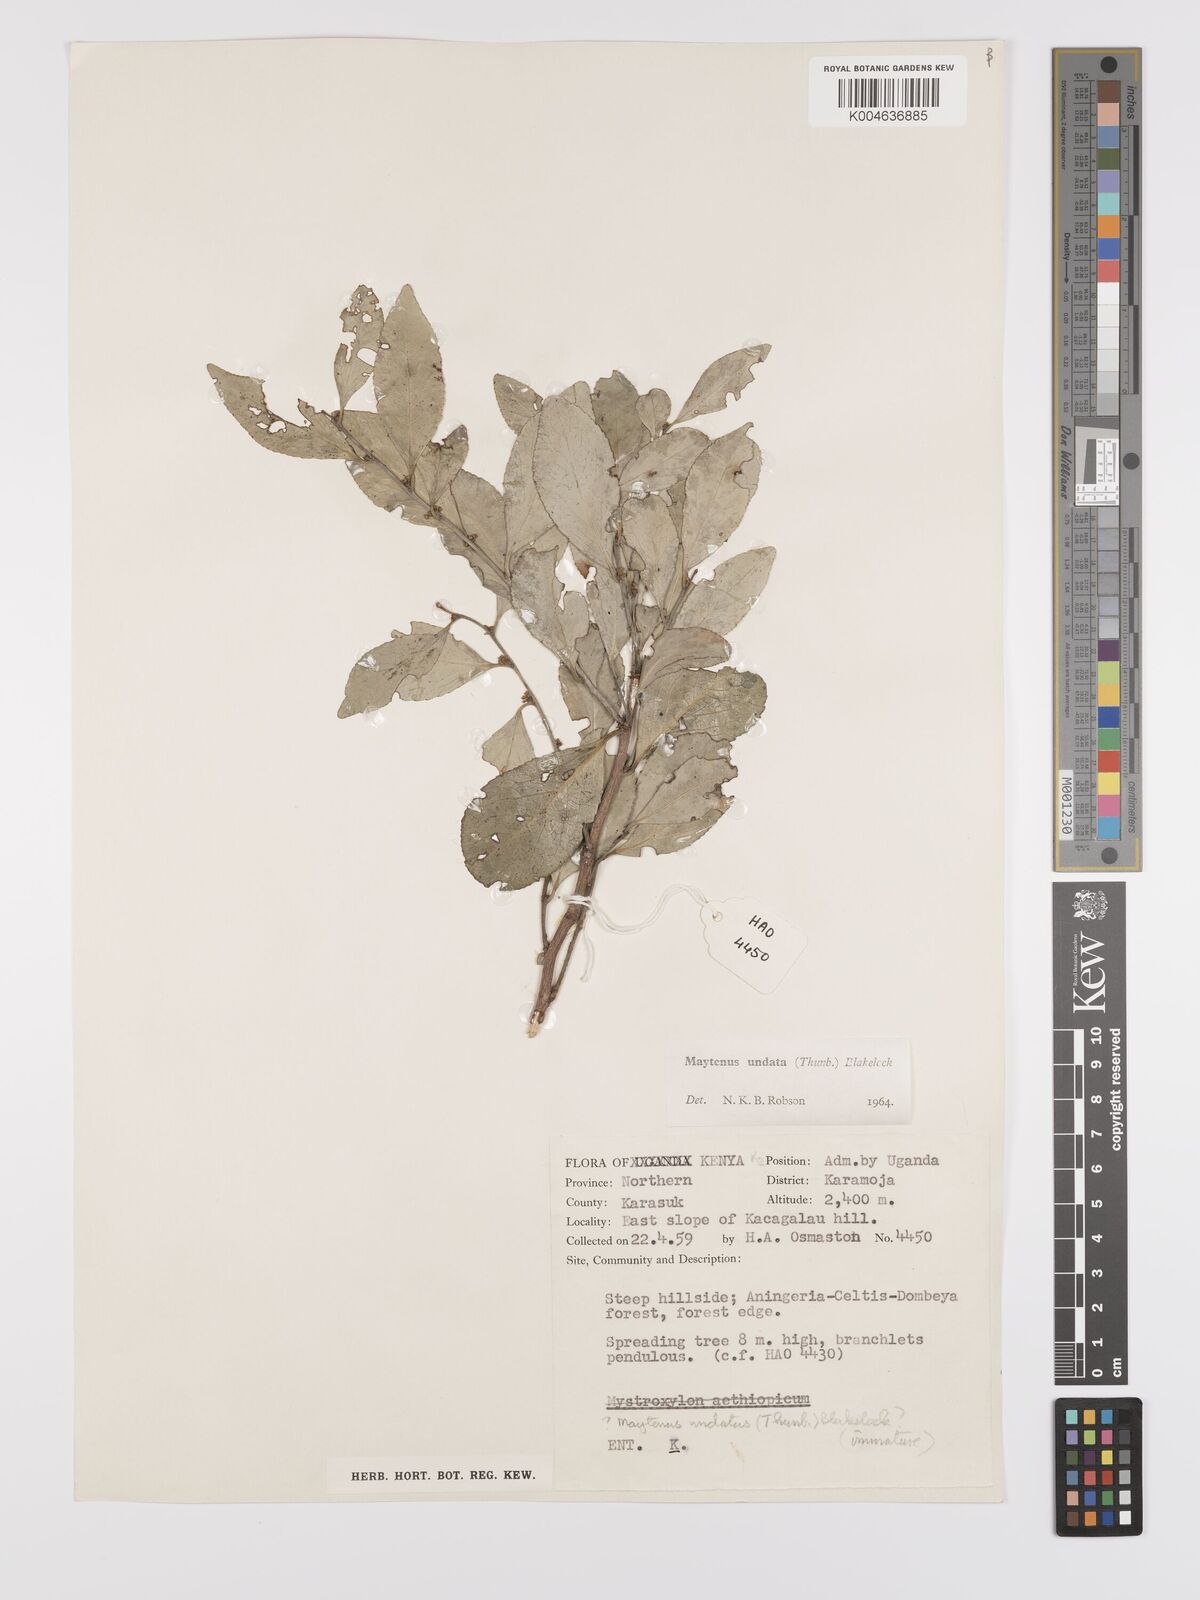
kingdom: Plantae
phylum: Tracheophyta
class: Magnoliopsida
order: Celastrales
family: Celastraceae
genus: Gymnosporia
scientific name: Gymnosporia undata
